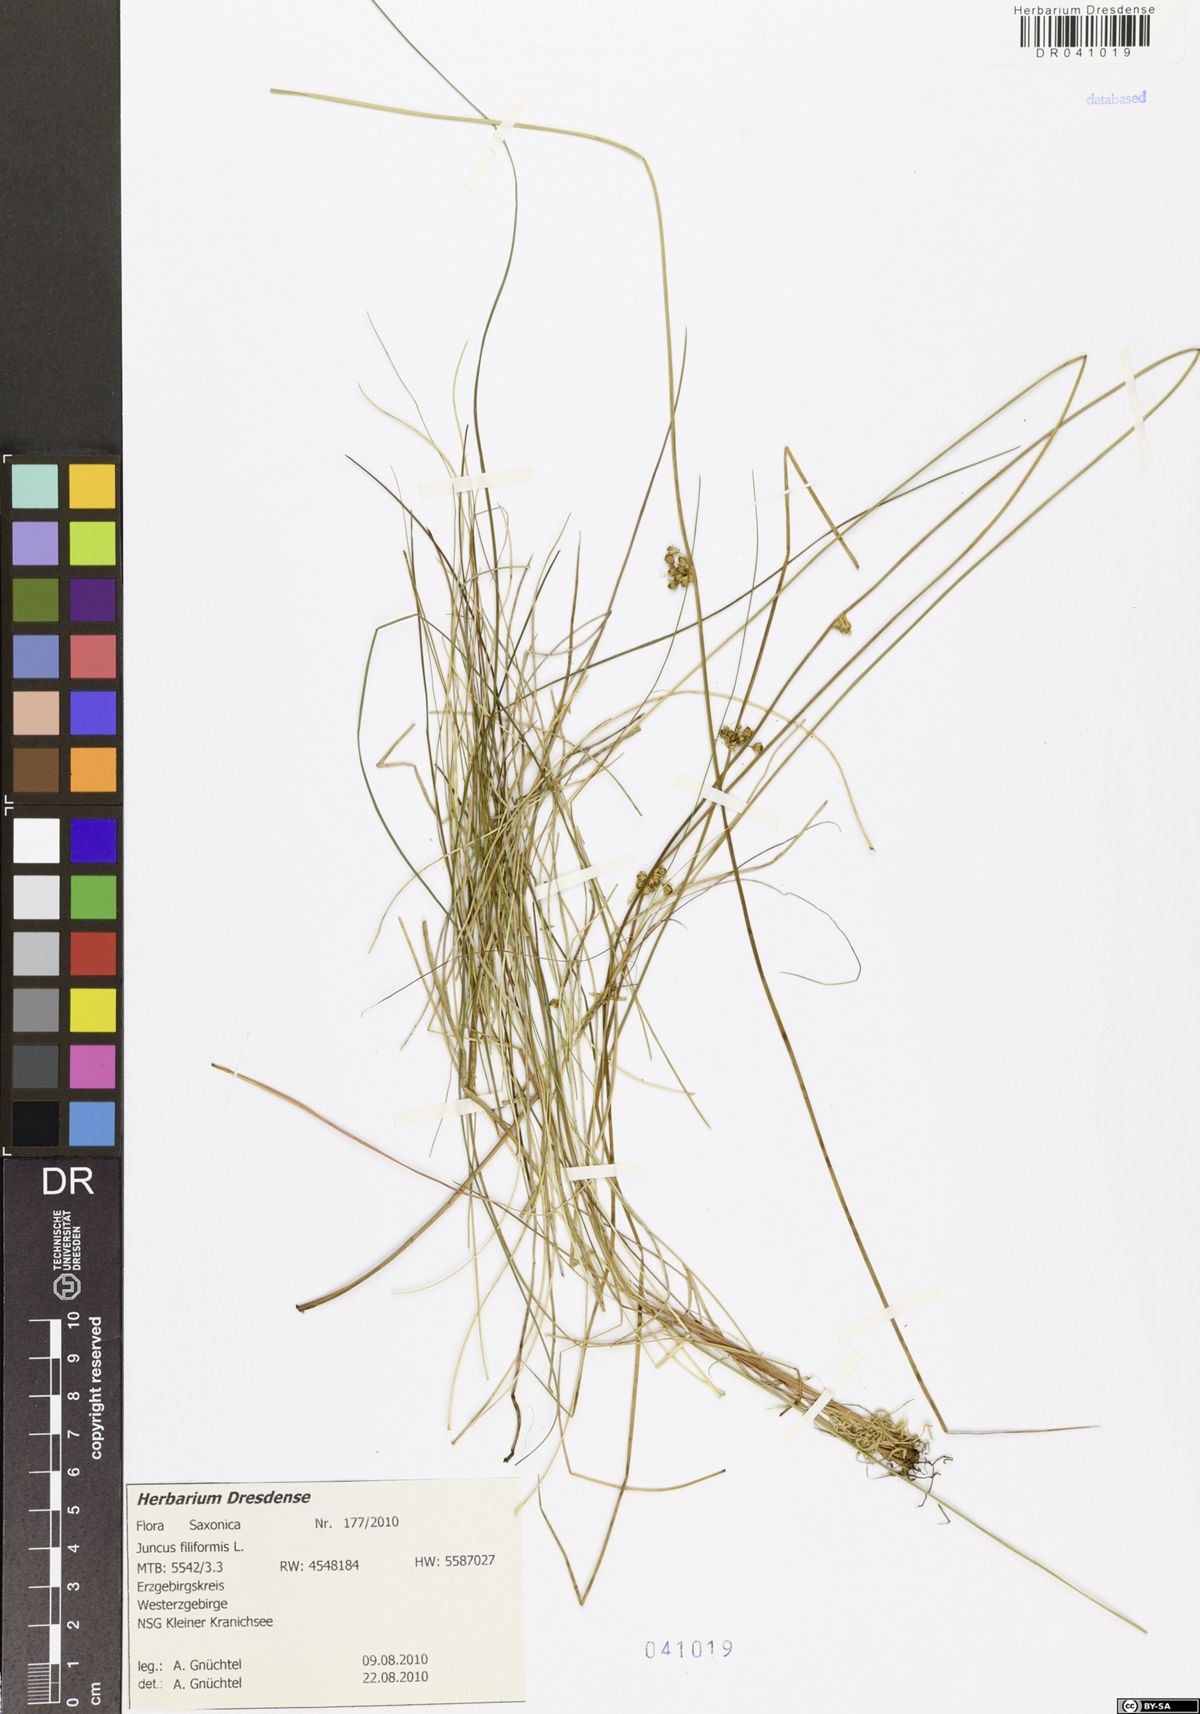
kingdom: Plantae
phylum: Tracheophyta
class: Liliopsida
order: Poales
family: Juncaceae
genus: Juncus
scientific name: Juncus inflexus
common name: Hard rush
